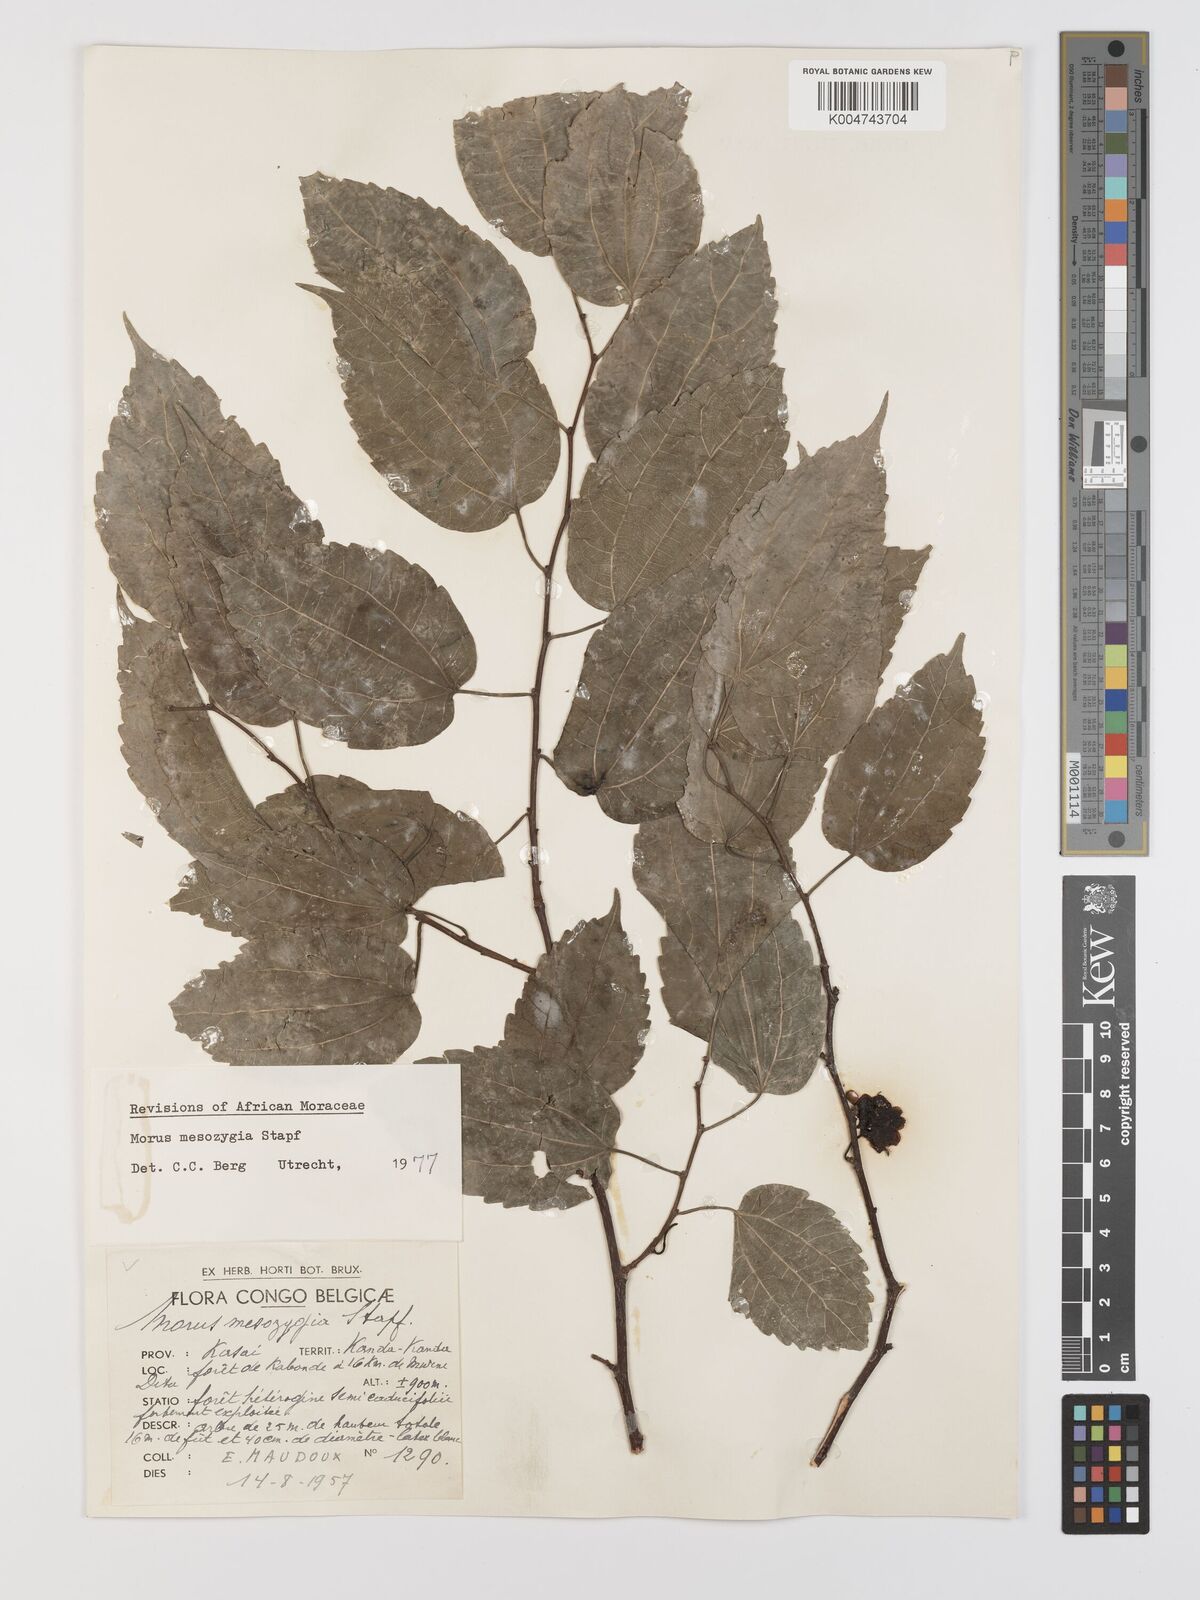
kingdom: Plantae
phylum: Tracheophyta
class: Magnoliopsida
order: Rosales
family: Moraceae
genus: Afromorus
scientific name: Afromorus mesozygia
